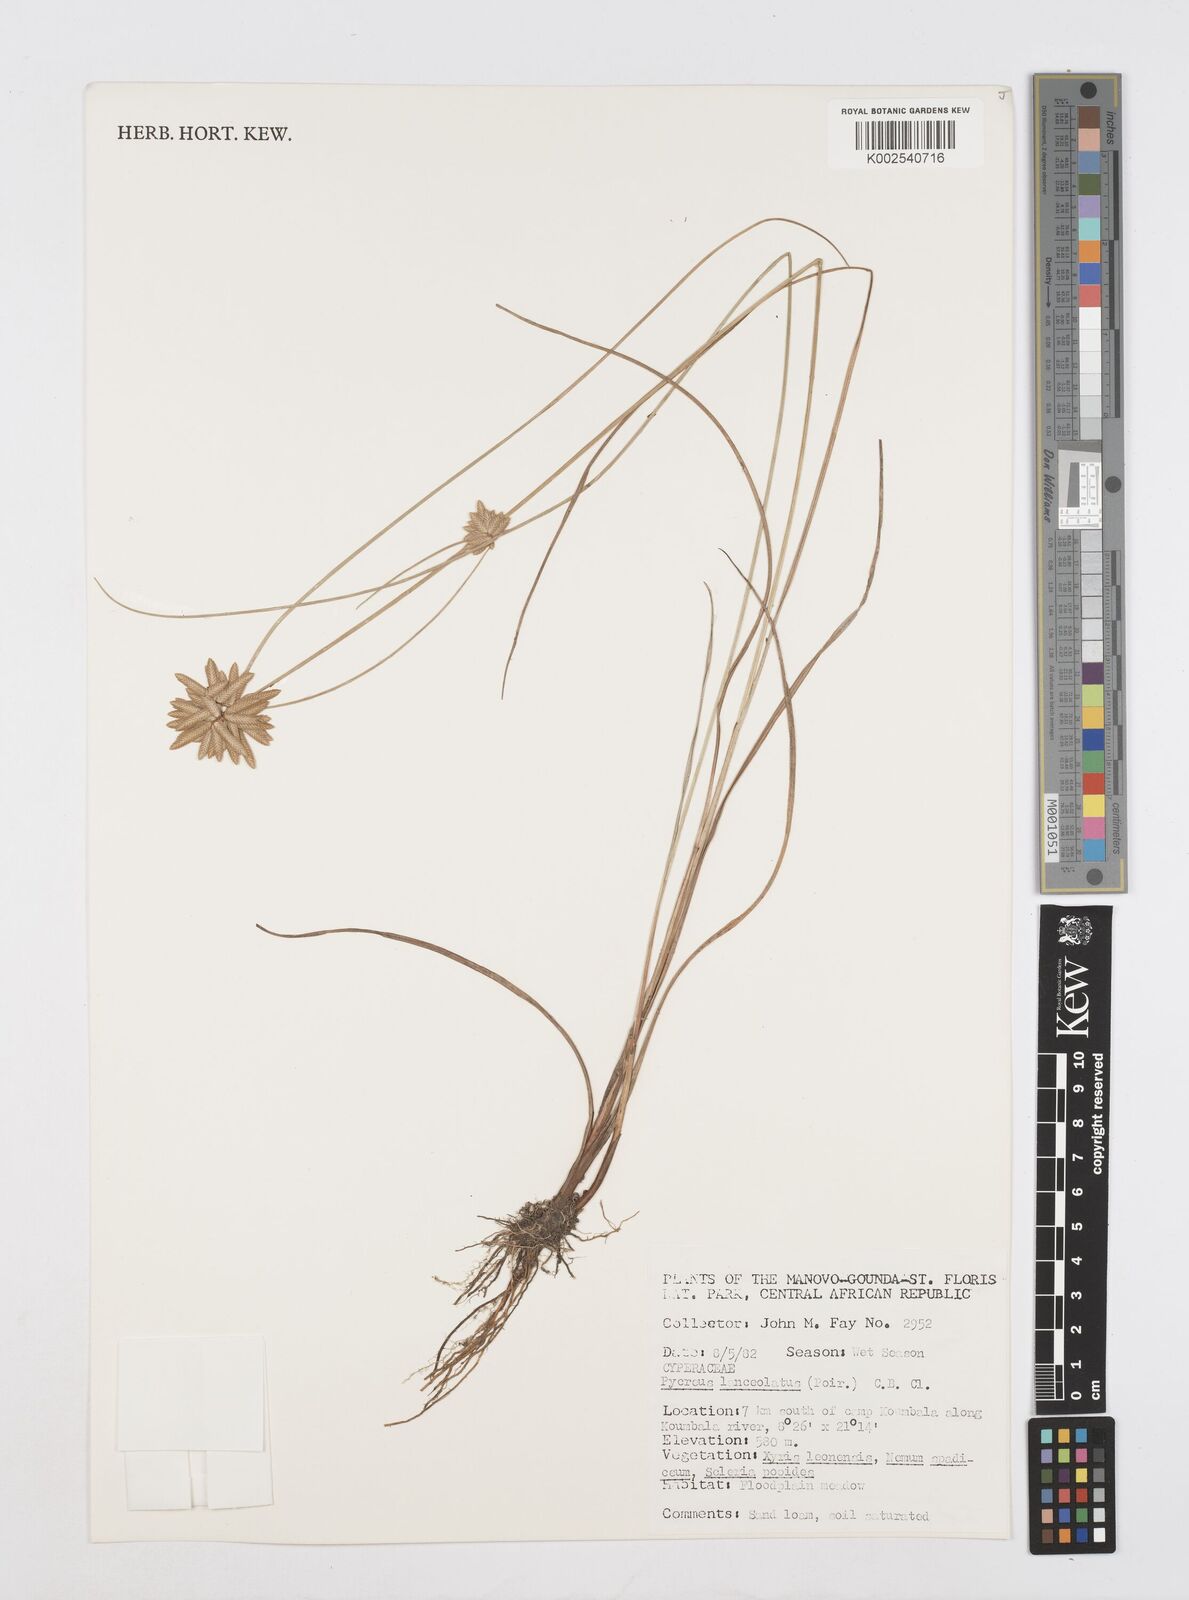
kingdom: Plantae
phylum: Tracheophyta
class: Liliopsida
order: Poales
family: Cyperaceae
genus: Cyperus
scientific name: Cyperus
